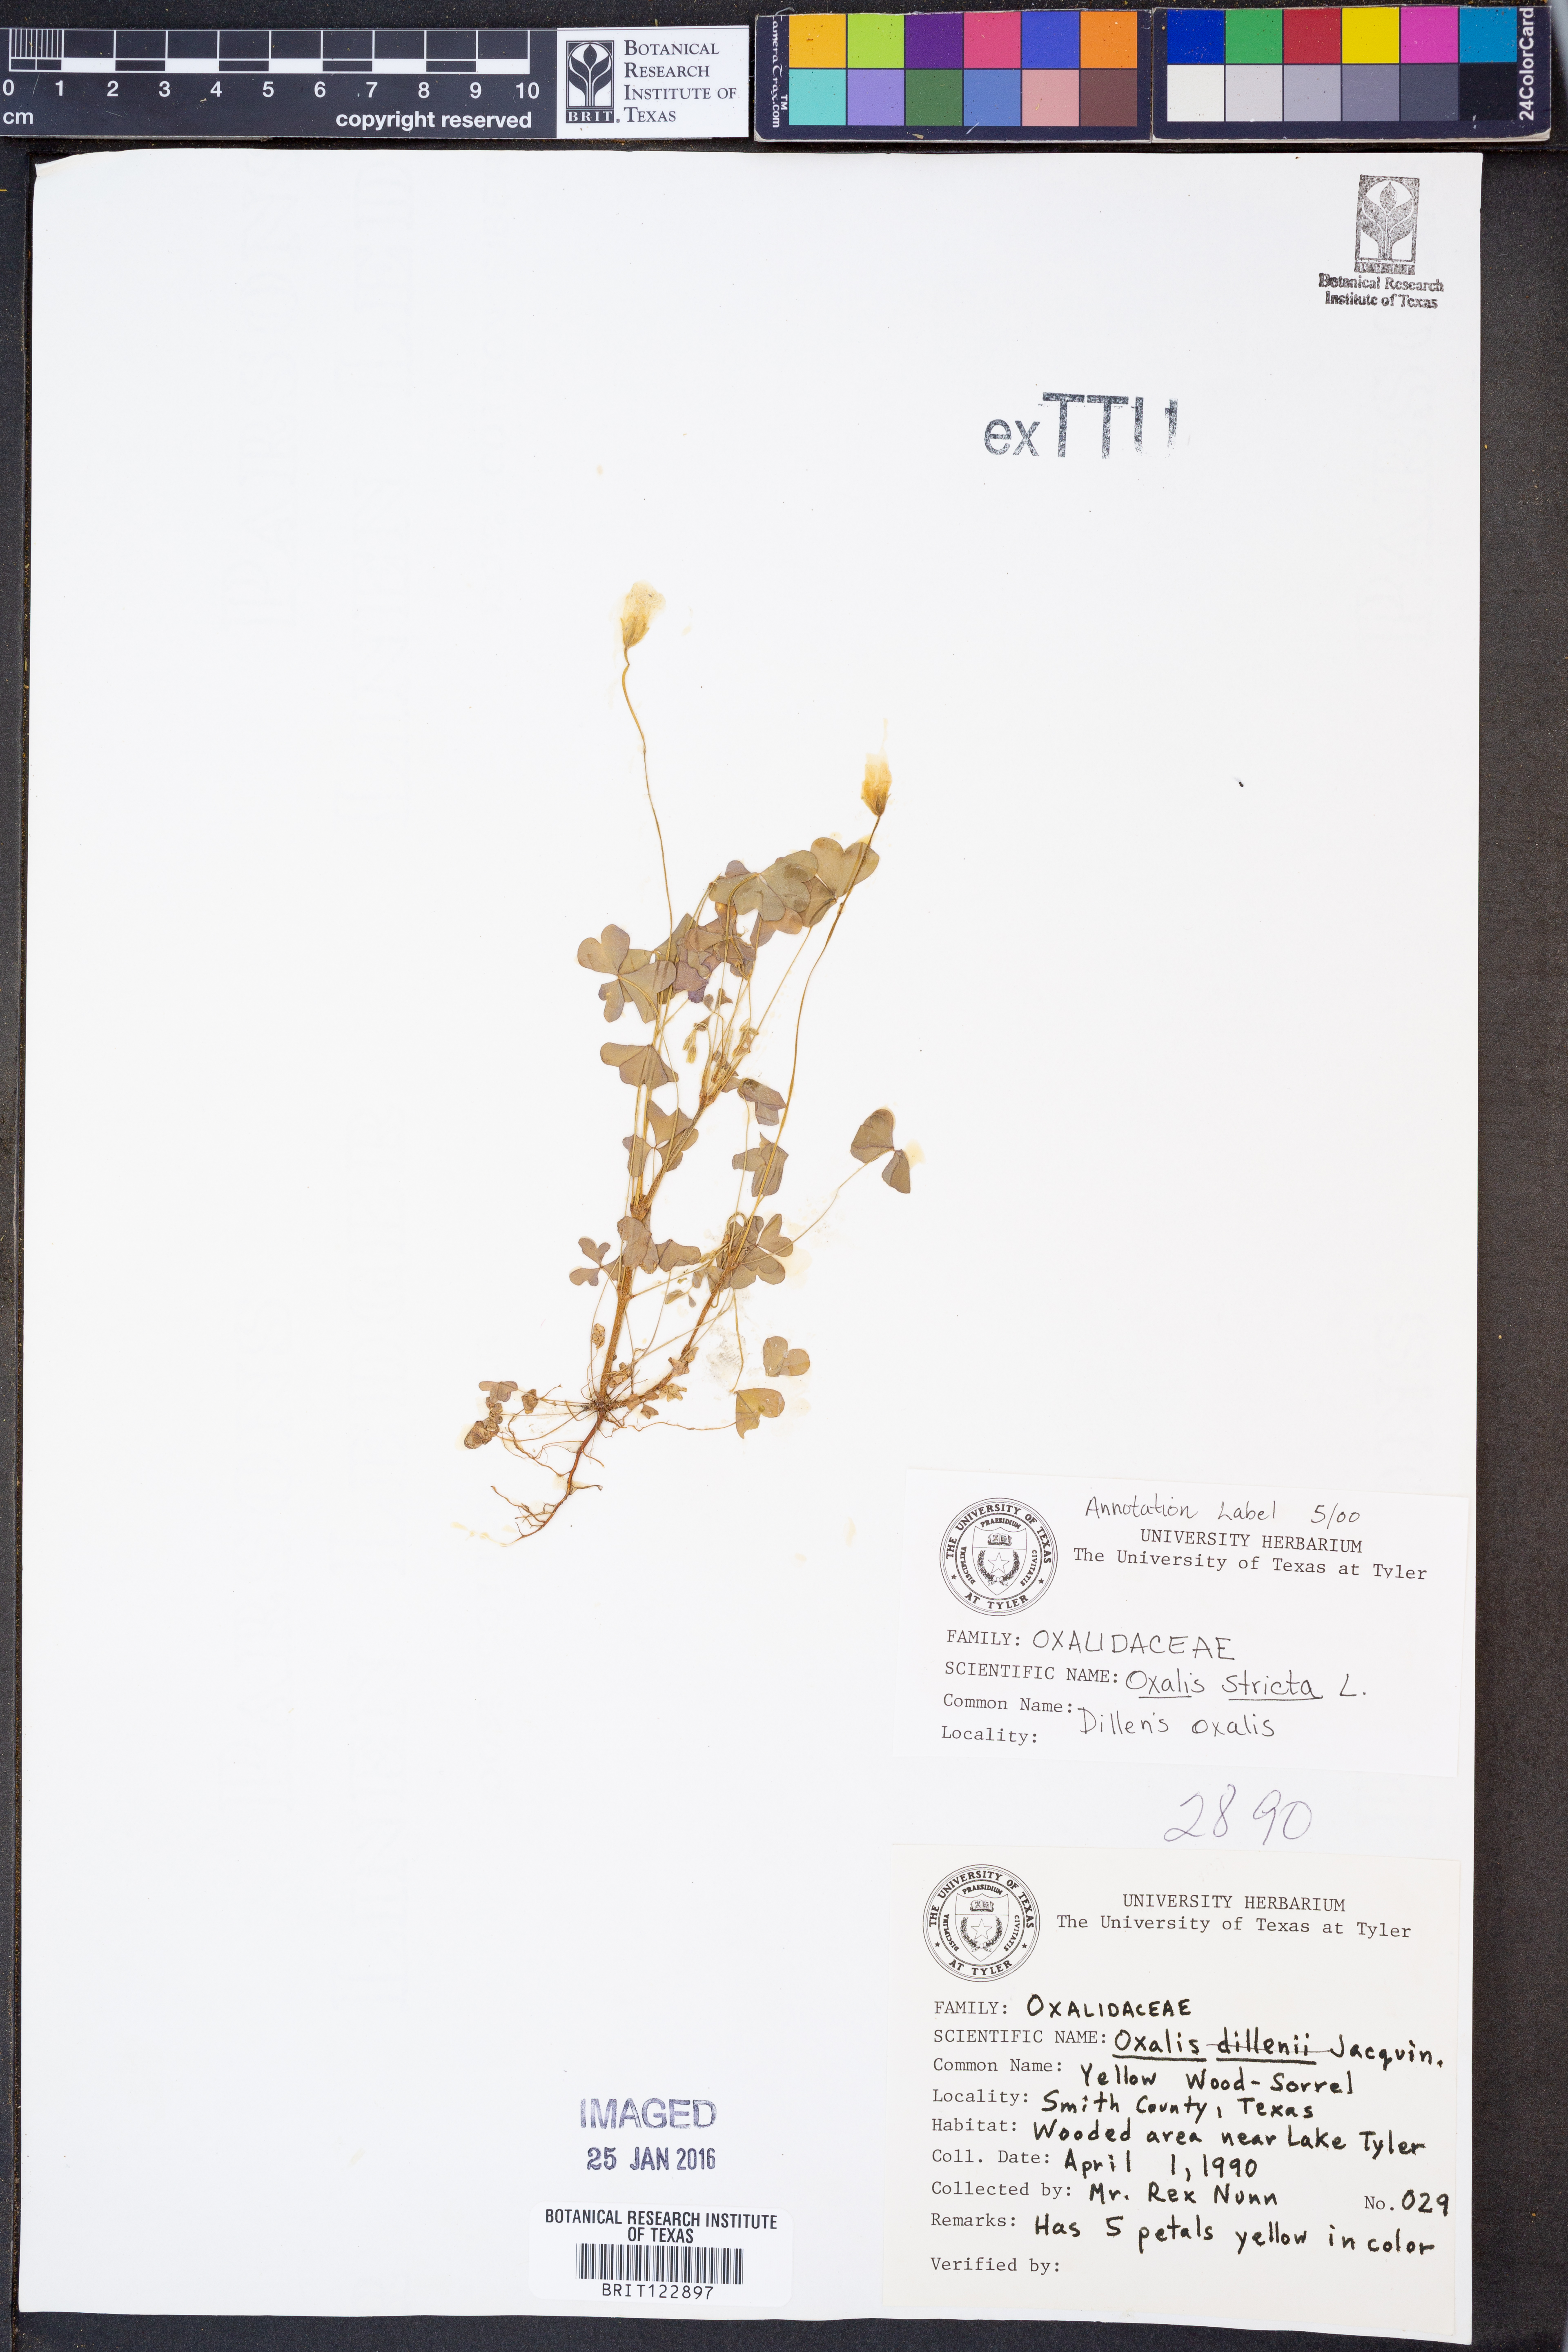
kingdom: Plantae
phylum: Tracheophyta
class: Magnoliopsida
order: Oxalidales
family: Oxalidaceae
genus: Oxalis
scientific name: Oxalis stricta
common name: Upright yellow-sorrel
